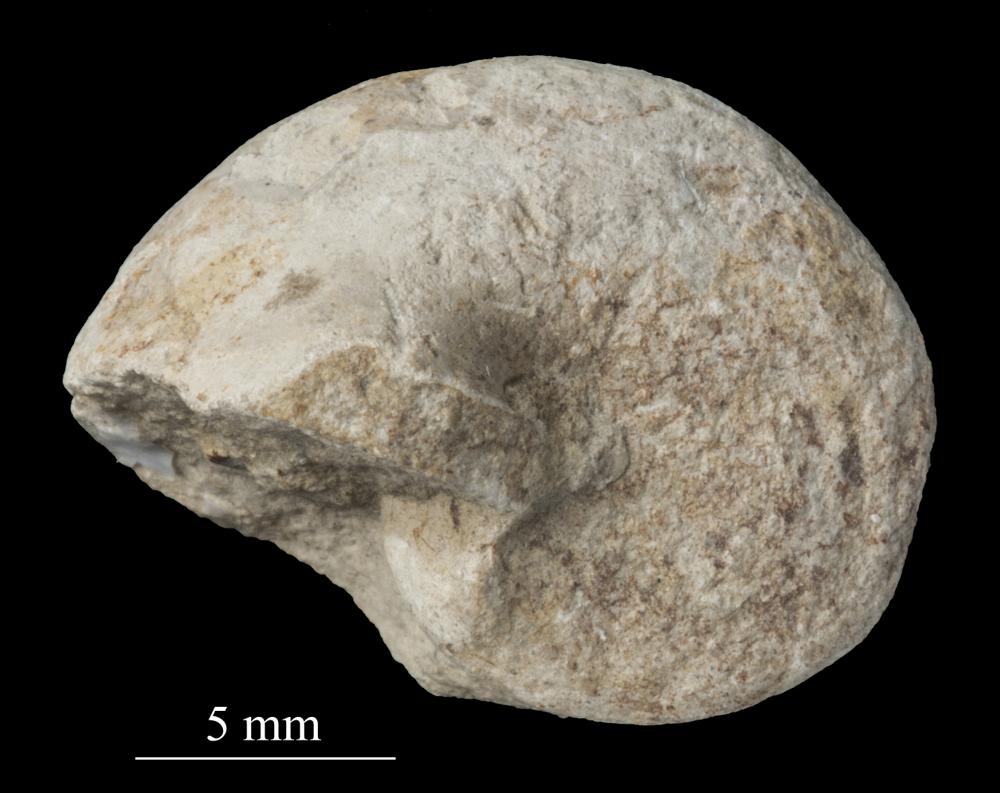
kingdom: Animalia
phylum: Mollusca
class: Gastropoda
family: Bellerophontidae
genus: Bellerophon
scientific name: Bellerophon
